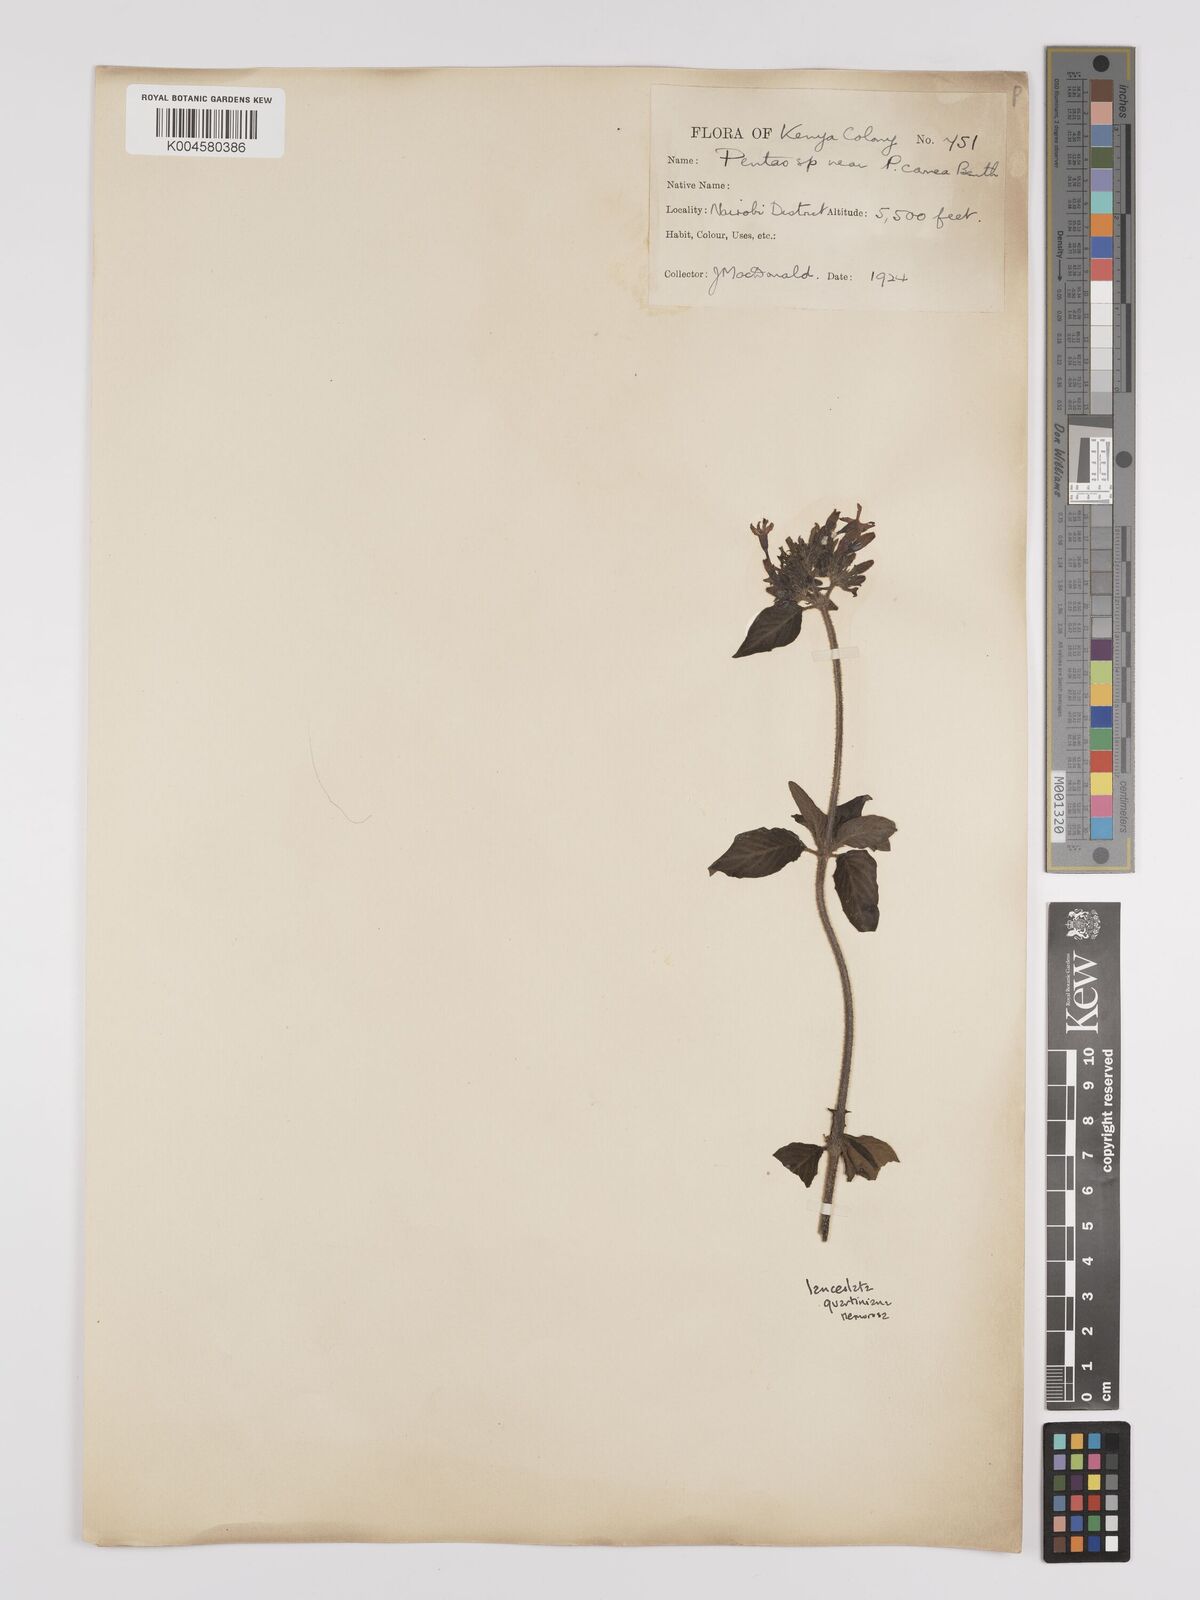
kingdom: Plantae
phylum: Tracheophyta
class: Magnoliopsida
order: Gentianales
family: Rubiaceae
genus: Pentas
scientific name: Pentas lanceolata
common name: Egyptian starcluster
